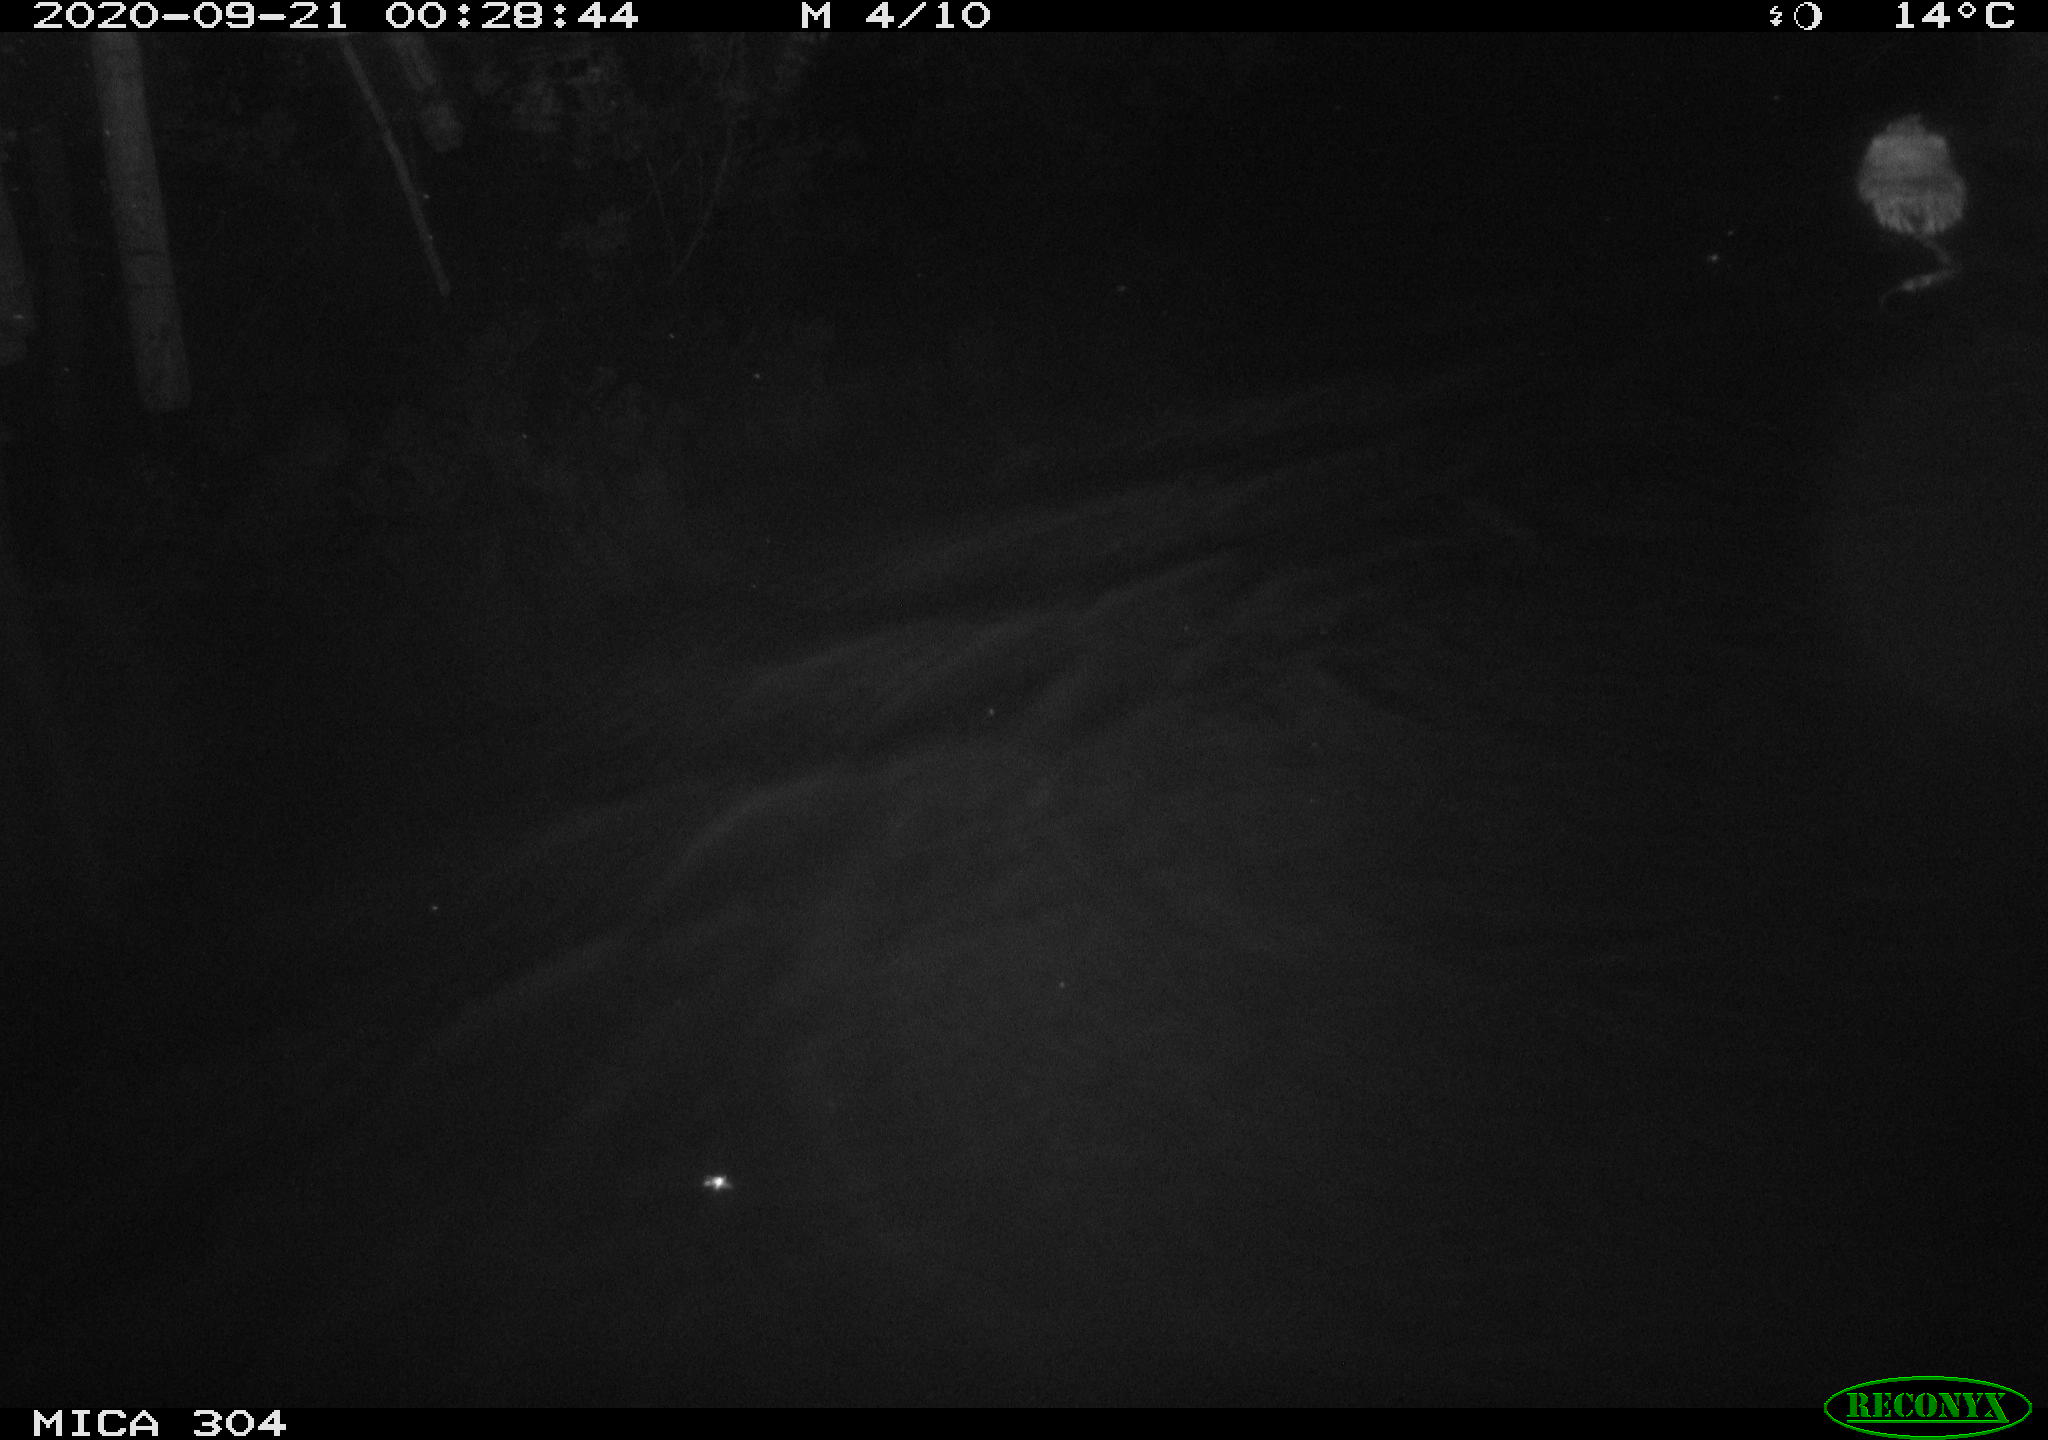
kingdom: Animalia
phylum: Chordata
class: Mammalia
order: Rodentia
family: Cricetidae
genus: Ondatra
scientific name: Ondatra zibethicus
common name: Muskrat
